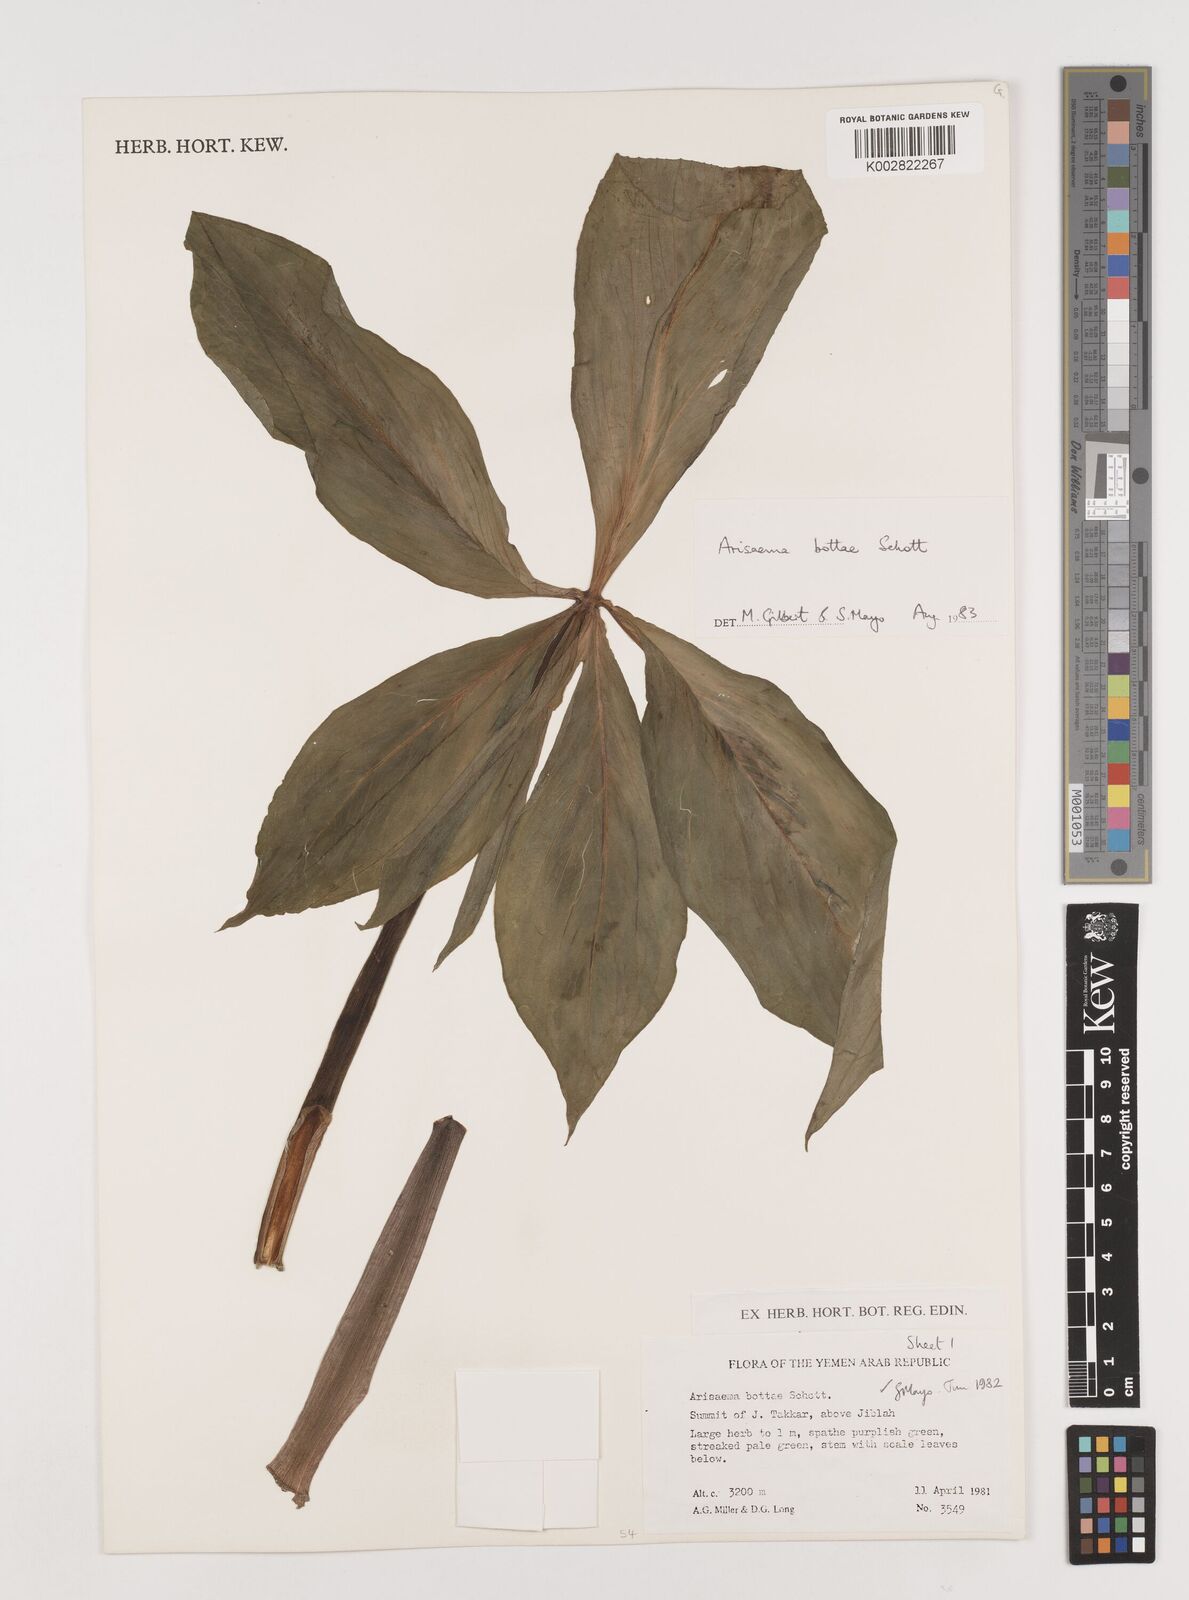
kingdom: Plantae
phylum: Tracheophyta
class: Liliopsida
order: Alismatales
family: Araceae
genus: Arisaema
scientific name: Arisaema bottae
